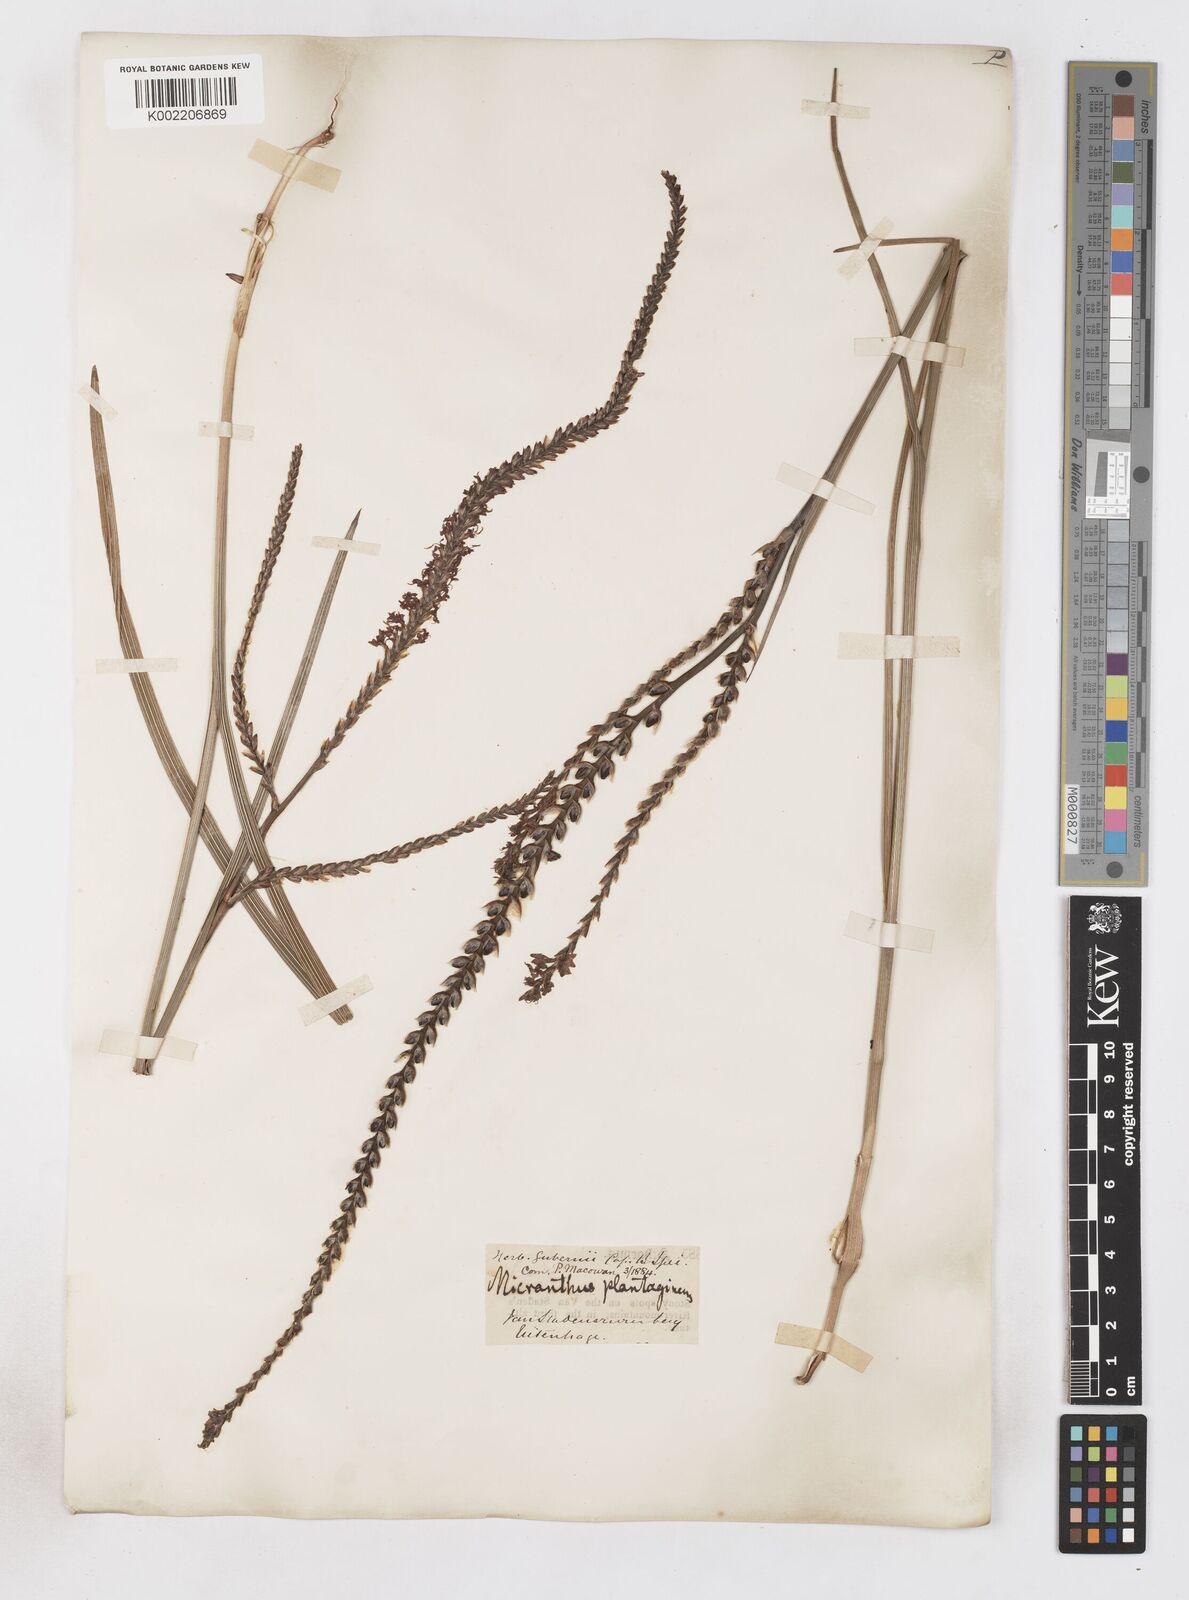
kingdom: Plantae
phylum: Tracheophyta
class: Liliopsida
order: Asparagales
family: Iridaceae
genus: Micranthus
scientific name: Micranthus plantagineus
